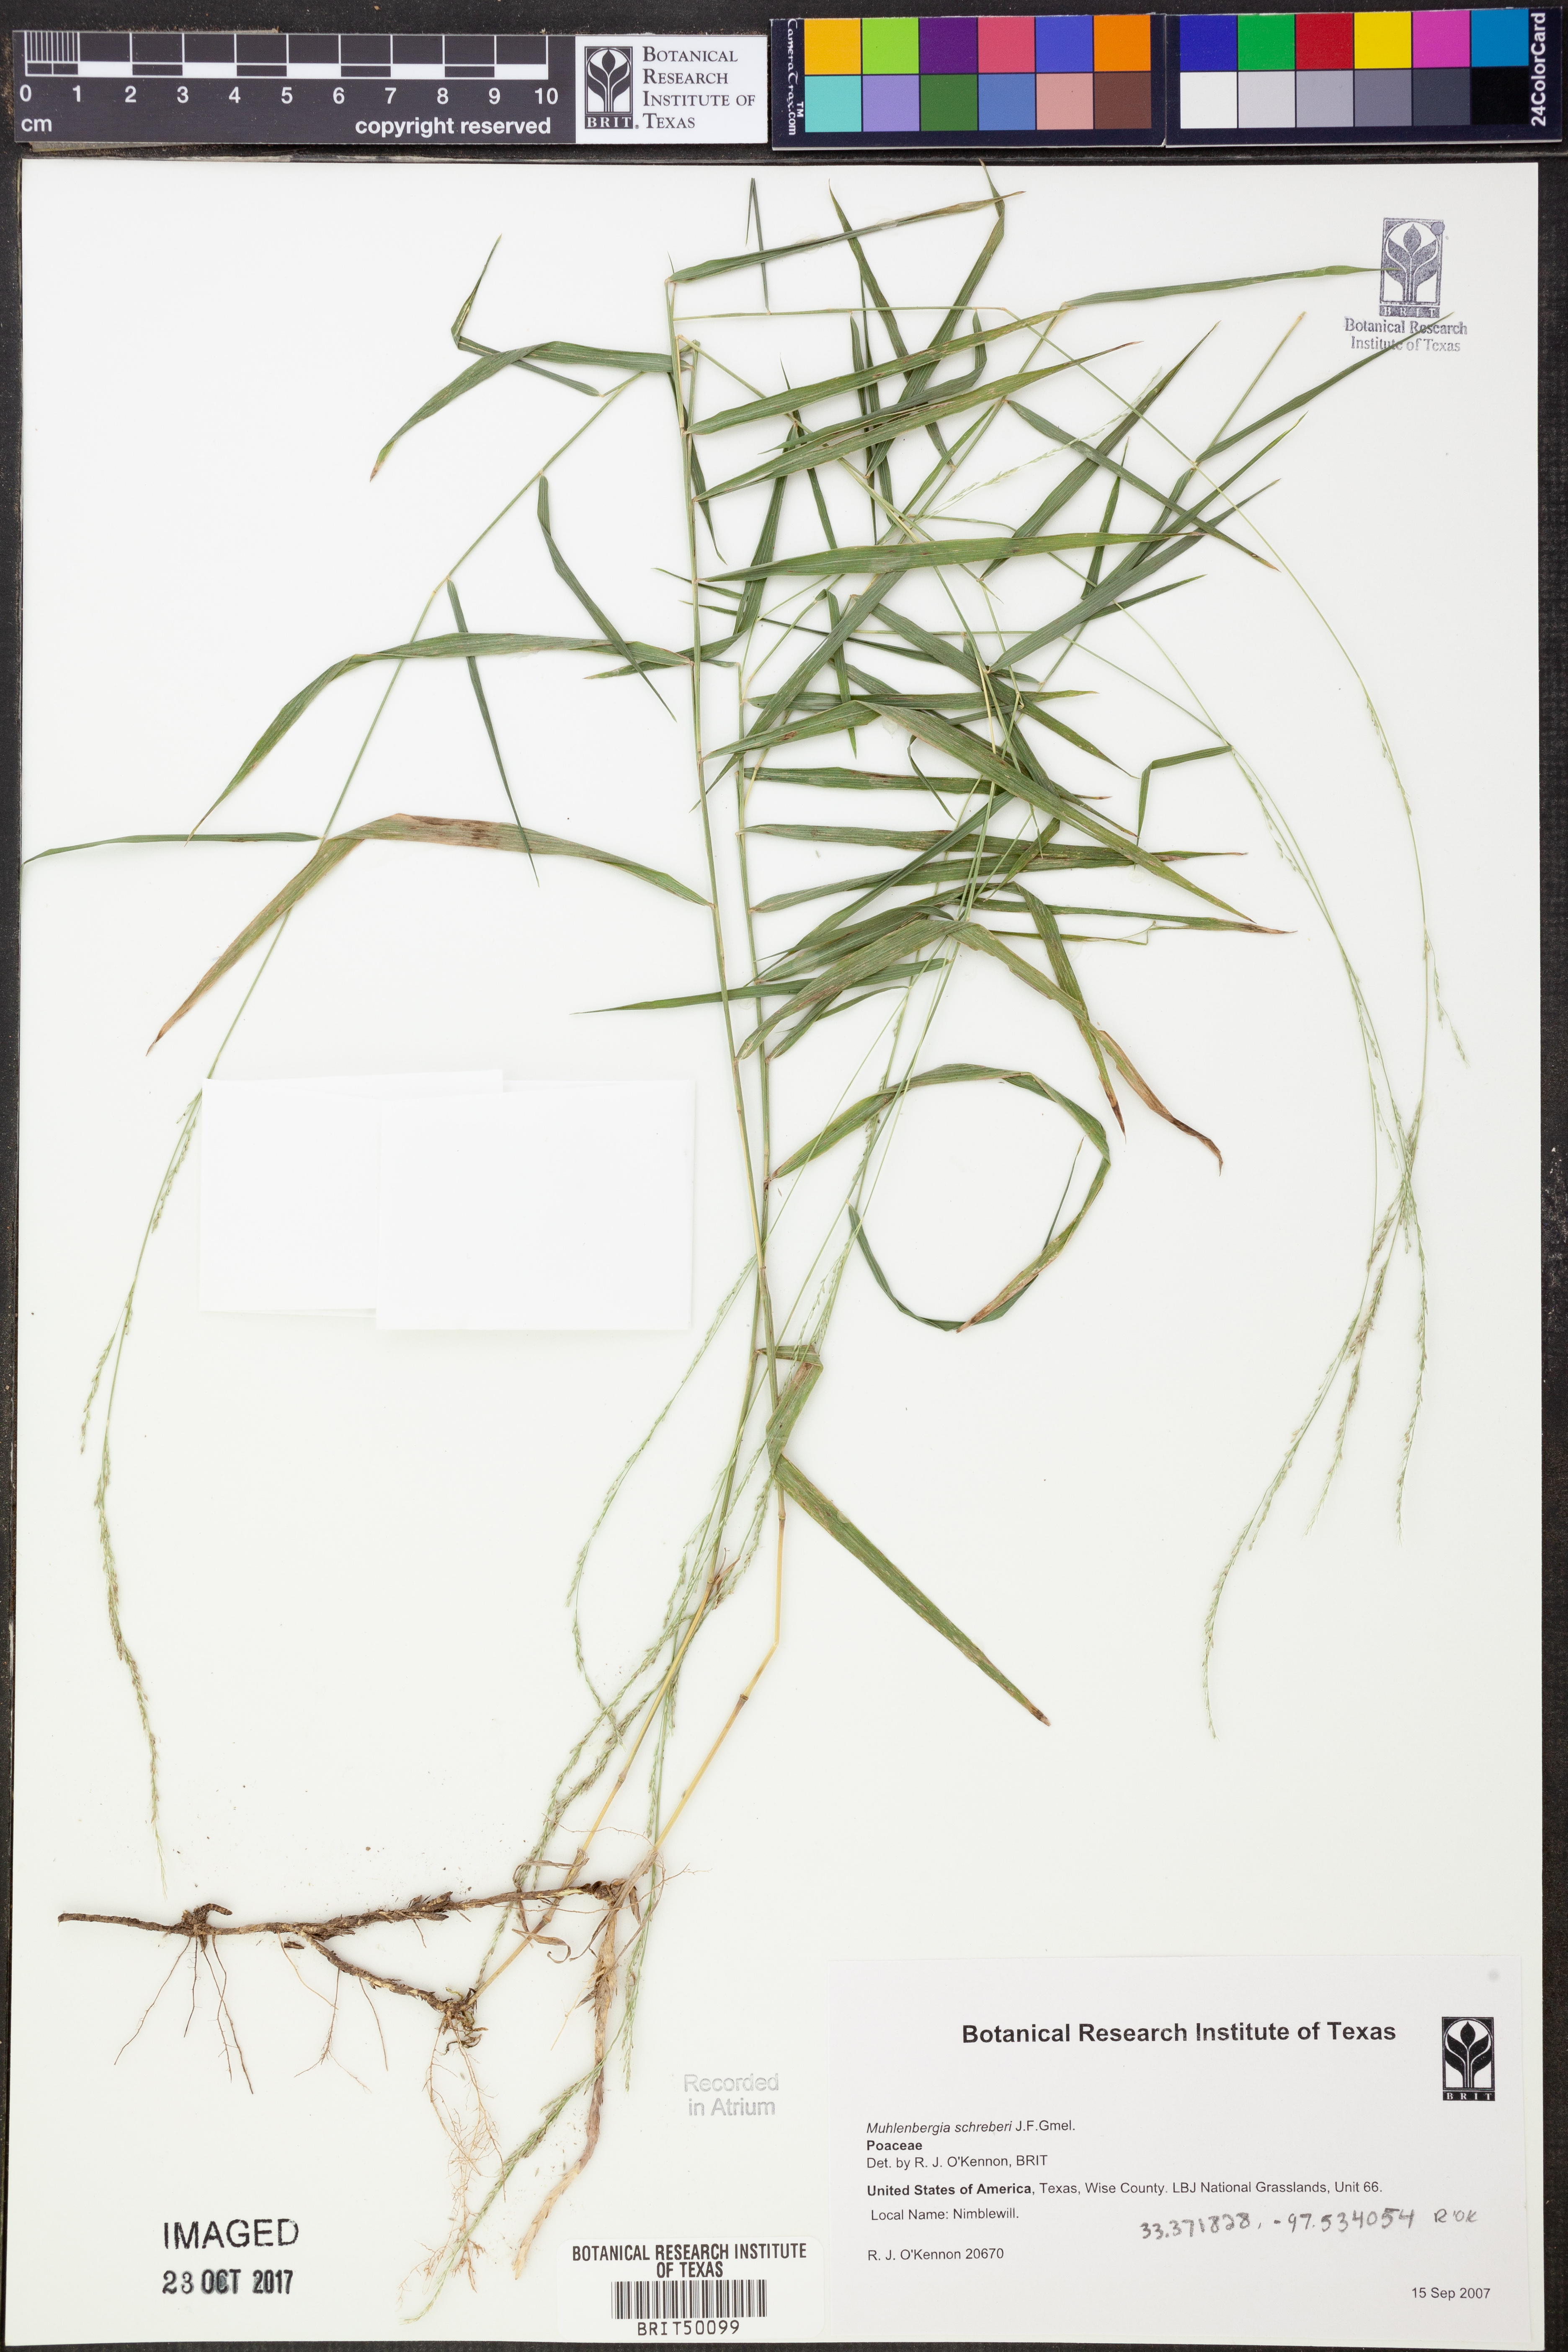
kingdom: Plantae
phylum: Tracheophyta
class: Liliopsida
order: Poales
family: Poaceae
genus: Muhlenbergia
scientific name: Muhlenbergia schreberi
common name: Nimblewill
